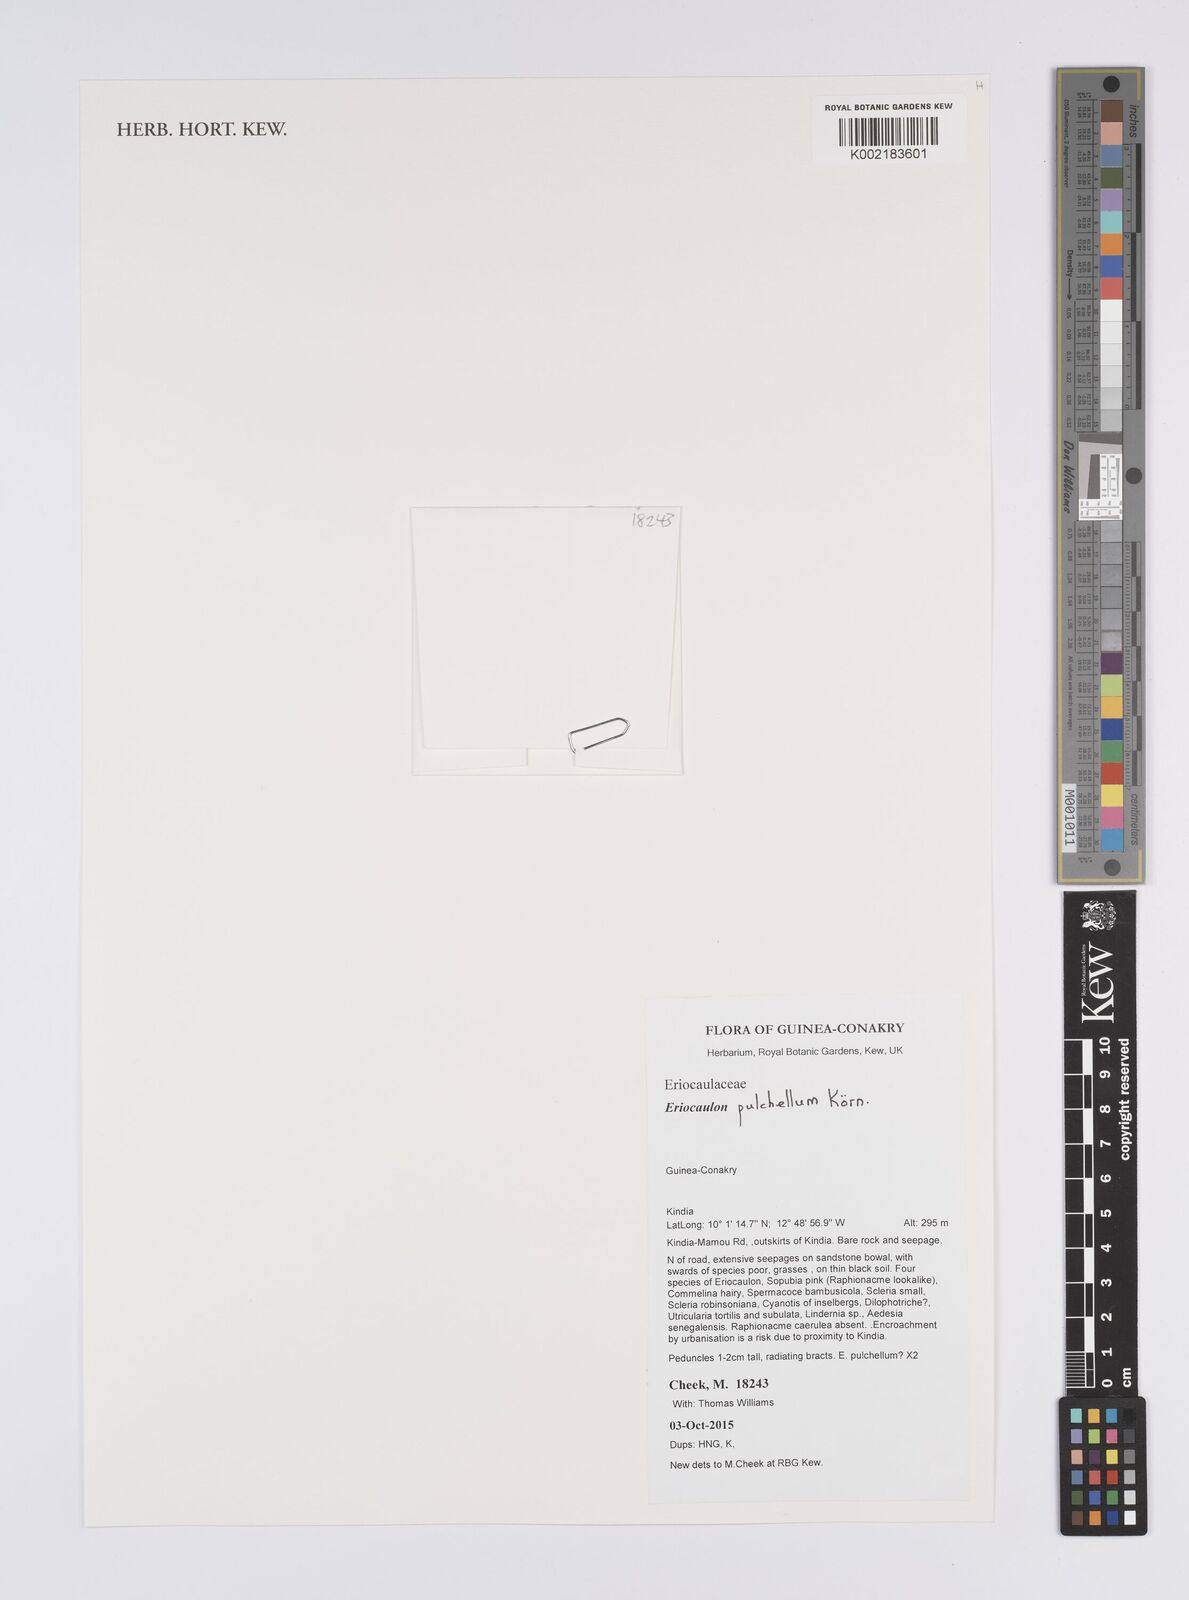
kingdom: Plantae
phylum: Tracheophyta
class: Liliopsida
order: Poales
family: Eriocaulaceae
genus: Eriocaulon
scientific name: Eriocaulon pulchellum
